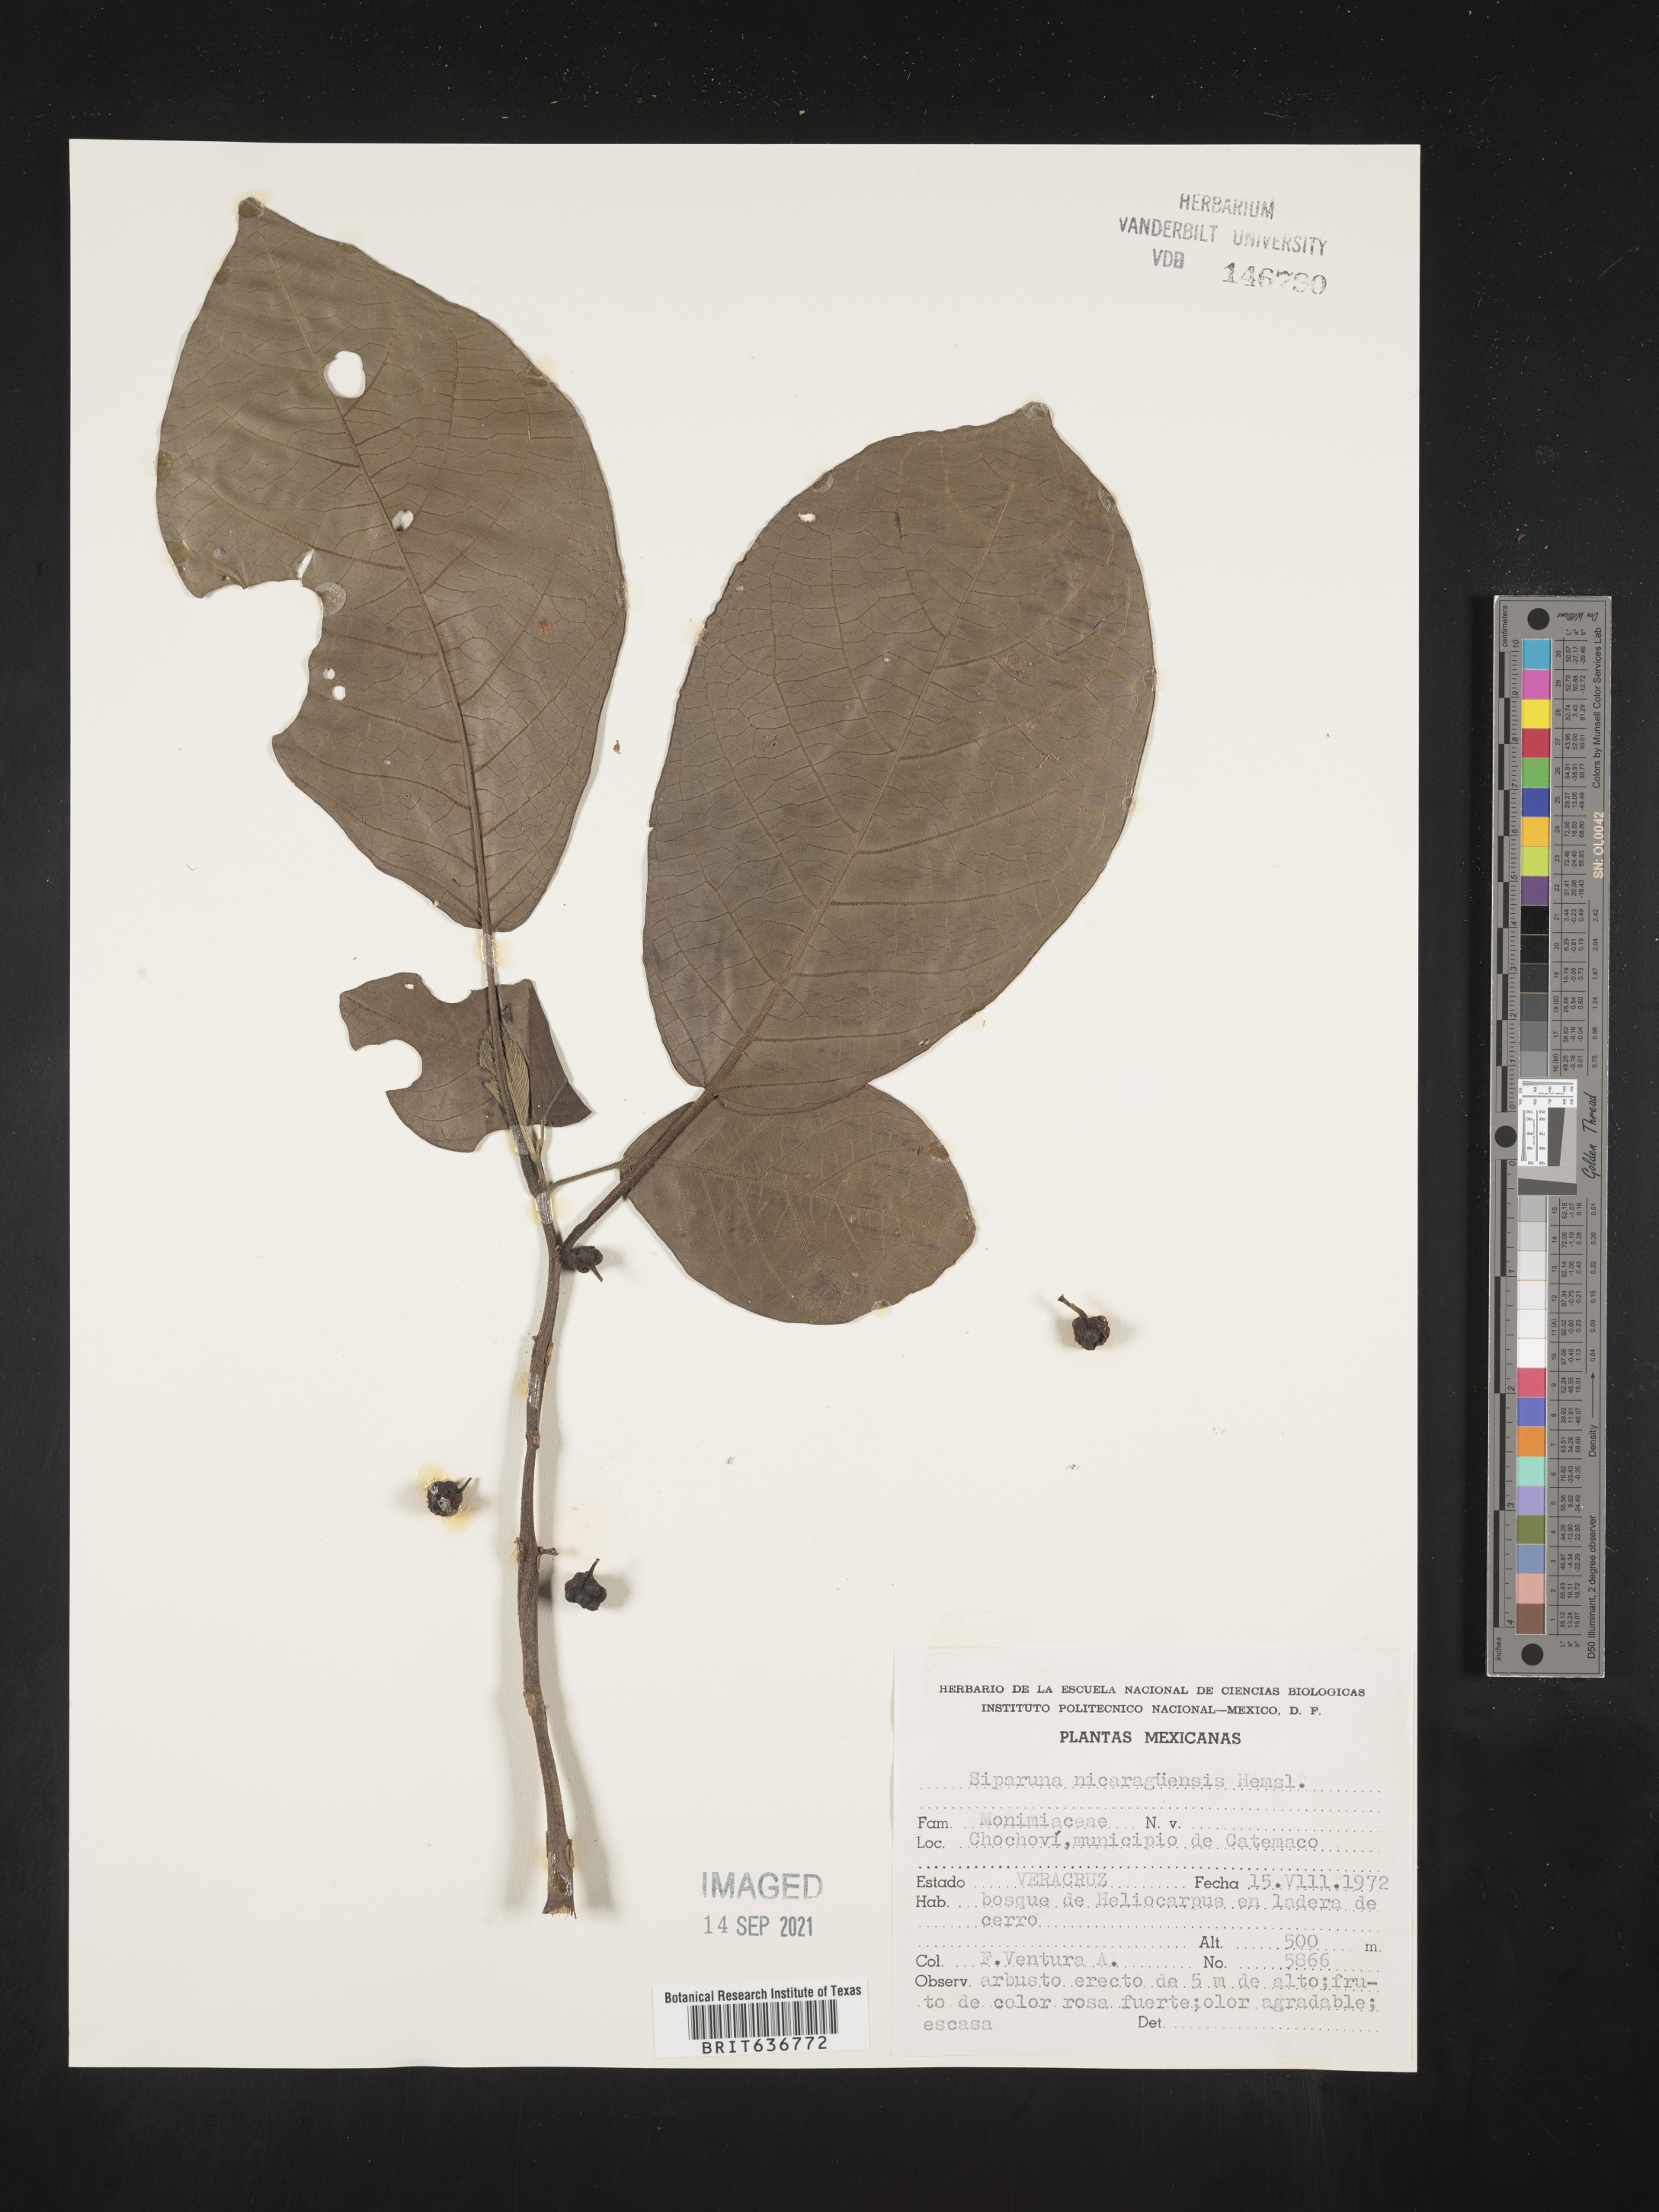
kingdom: Plantae
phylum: Tracheophyta
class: Magnoliopsida
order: Laurales
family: Siparunaceae
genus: Siparuna
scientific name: Siparuna
